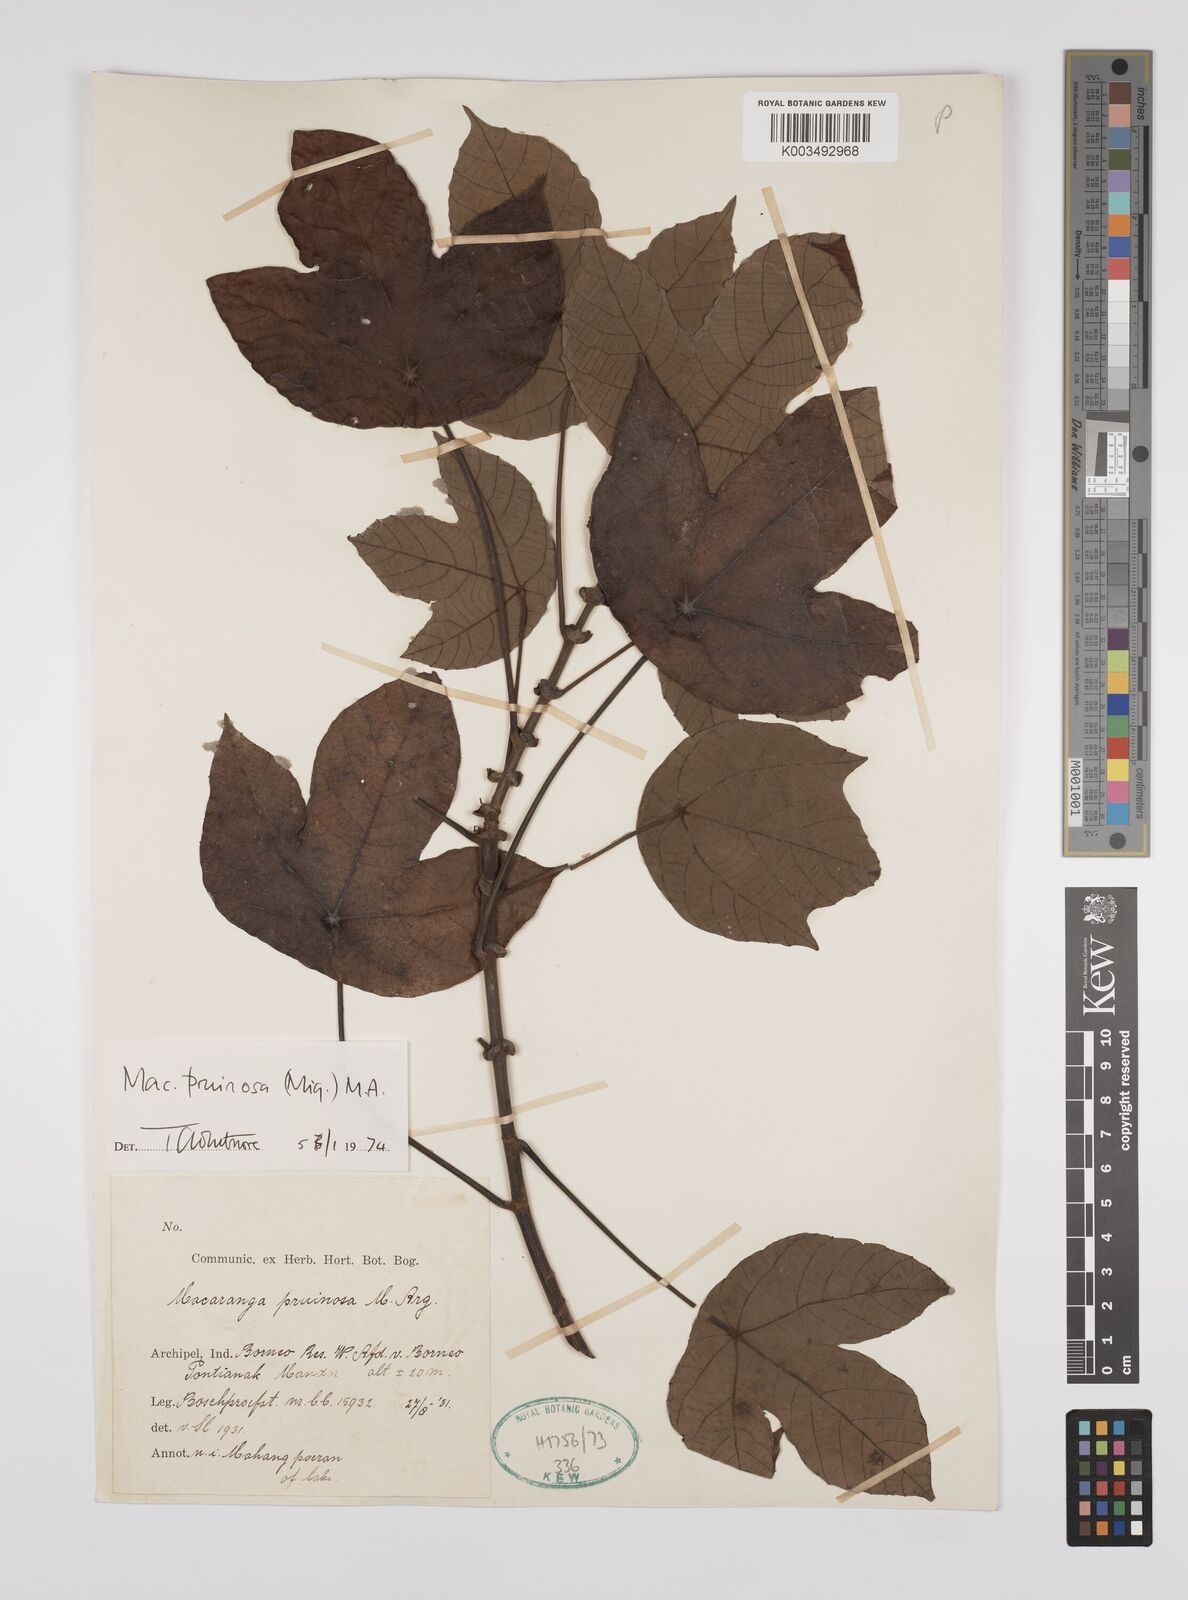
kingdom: Plantae
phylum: Tracheophyta
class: Magnoliopsida
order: Malpighiales
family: Euphorbiaceae
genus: Macaranga
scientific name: Macaranga pruinosa
